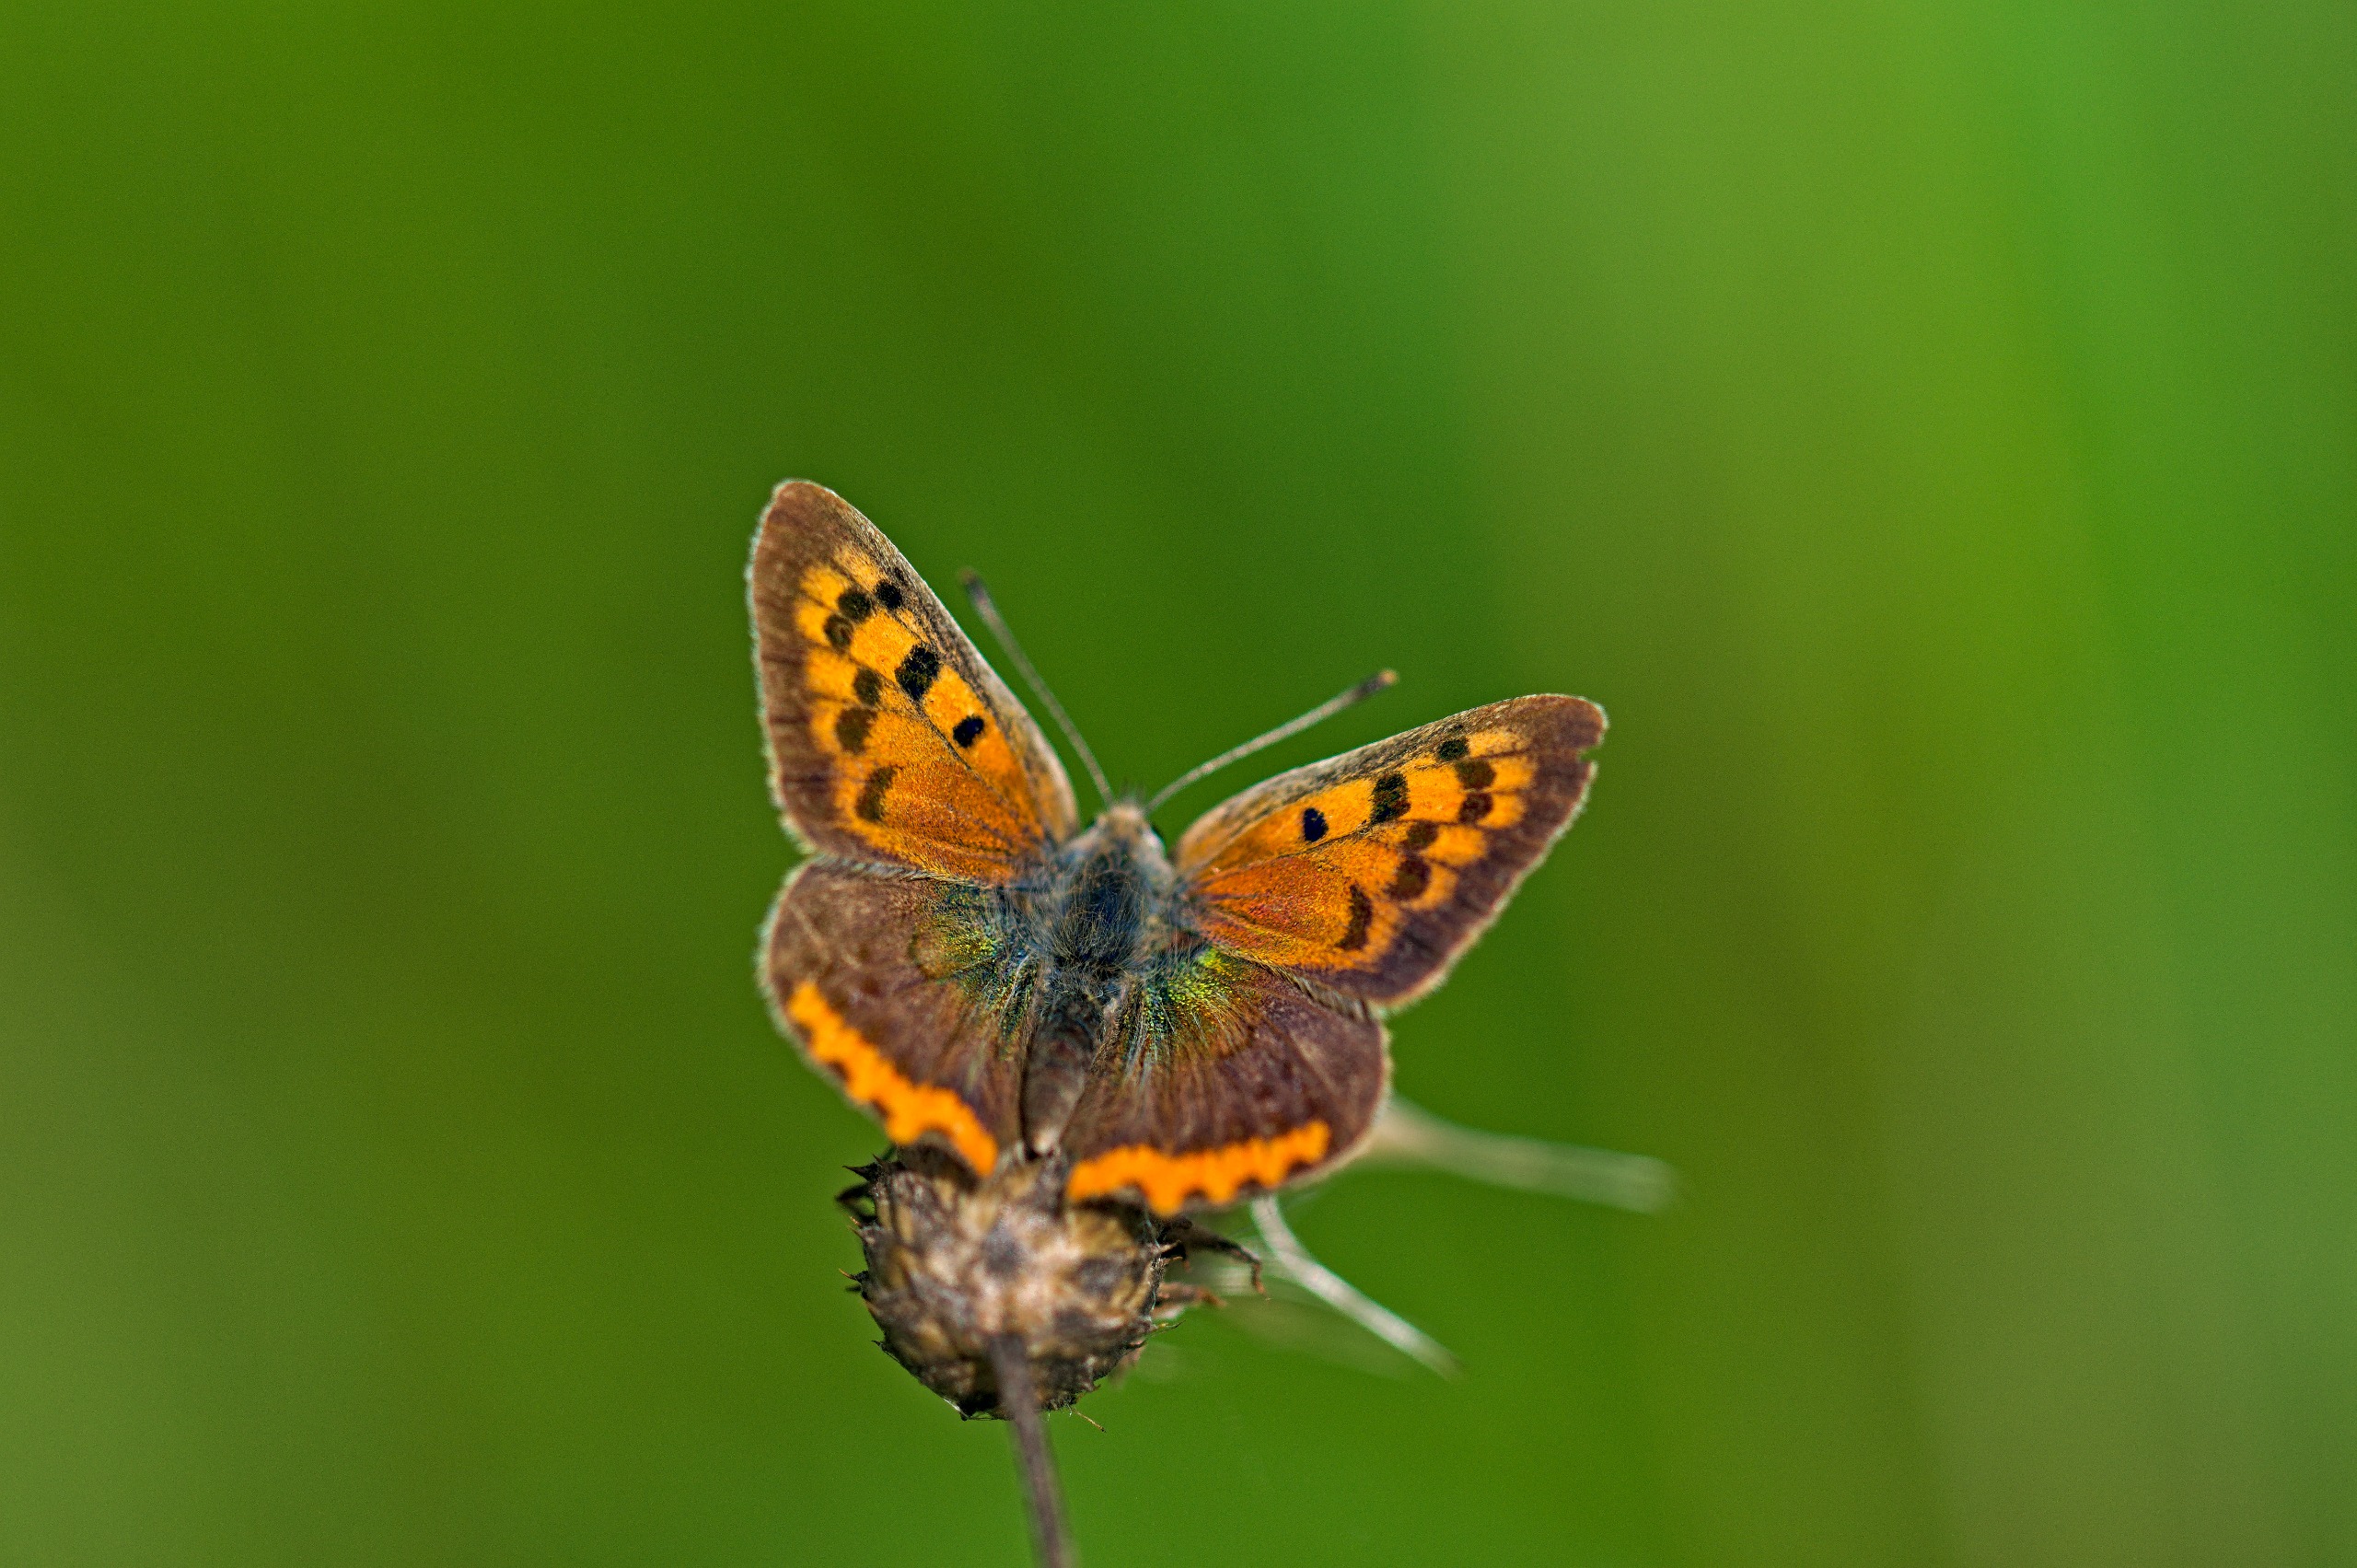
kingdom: Animalia
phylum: Arthropoda
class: Insecta
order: Lepidoptera
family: Lycaenidae
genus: Lycaena
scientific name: Lycaena phlaeas
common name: Lille ildfugl
